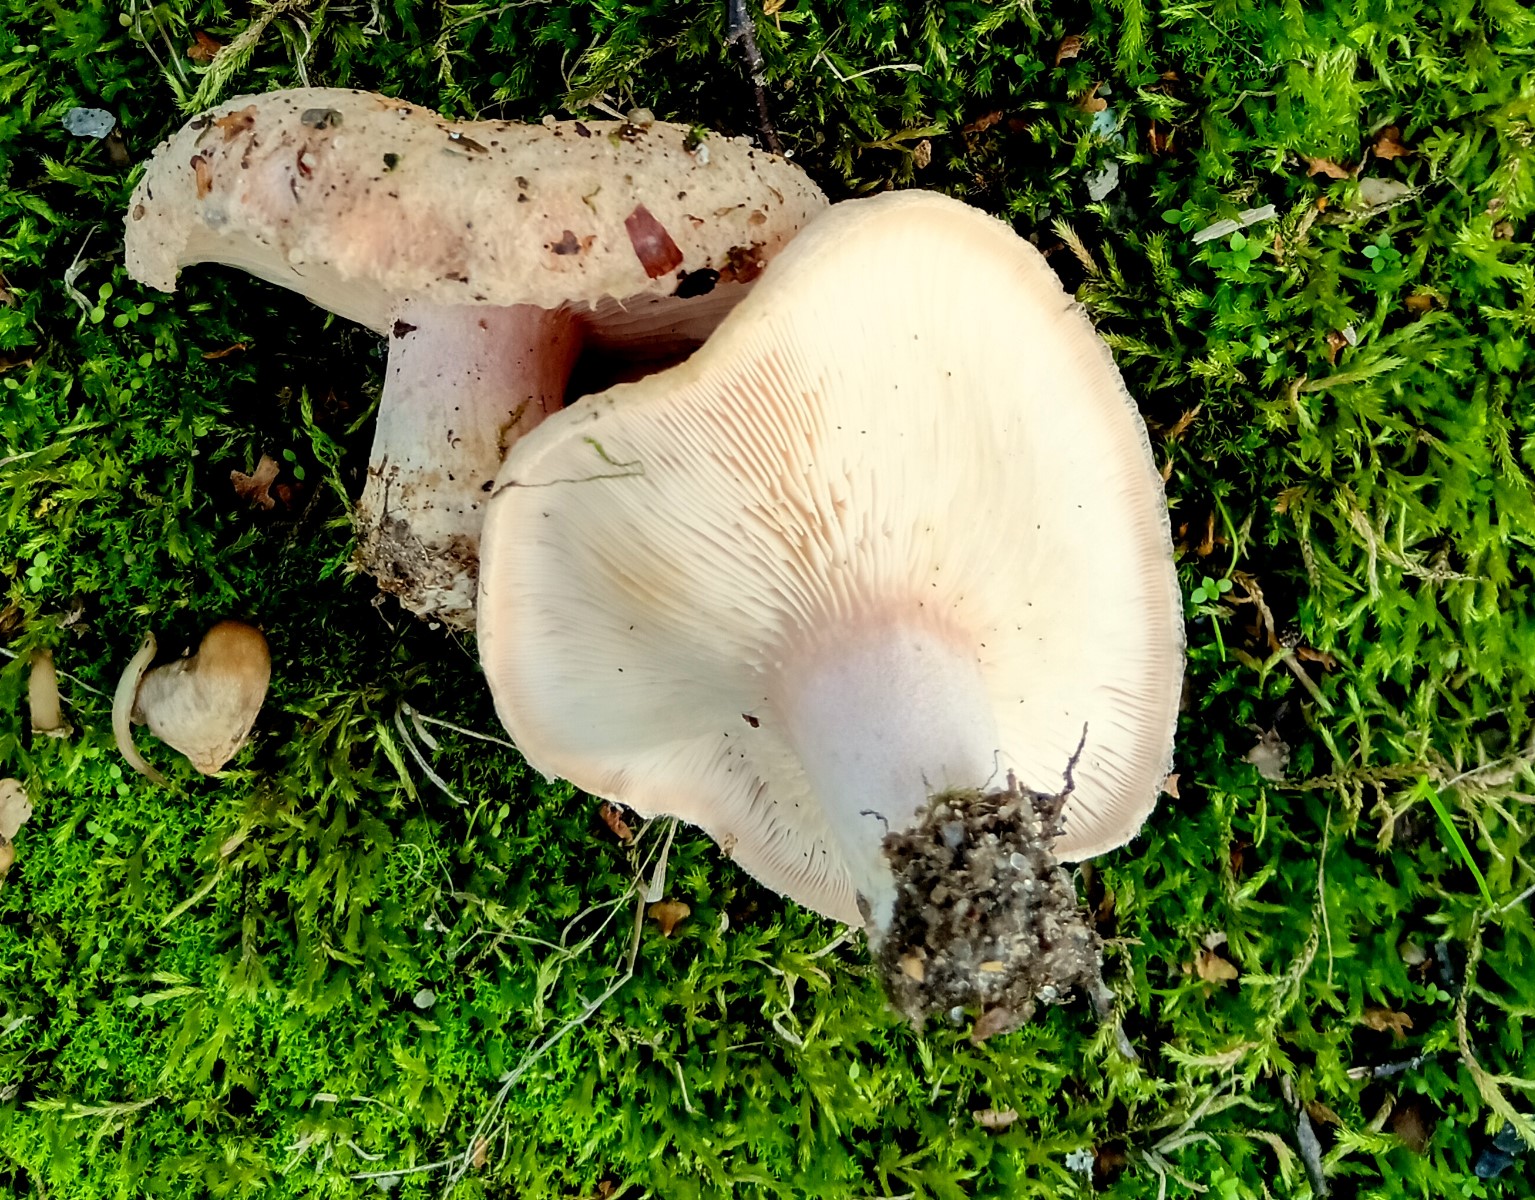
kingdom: Fungi
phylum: Basidiomycota
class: Agaricomycetes
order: Russulales
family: Russulaceae
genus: Lactarius
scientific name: Lactarius pubescens
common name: dunet mælkehat
